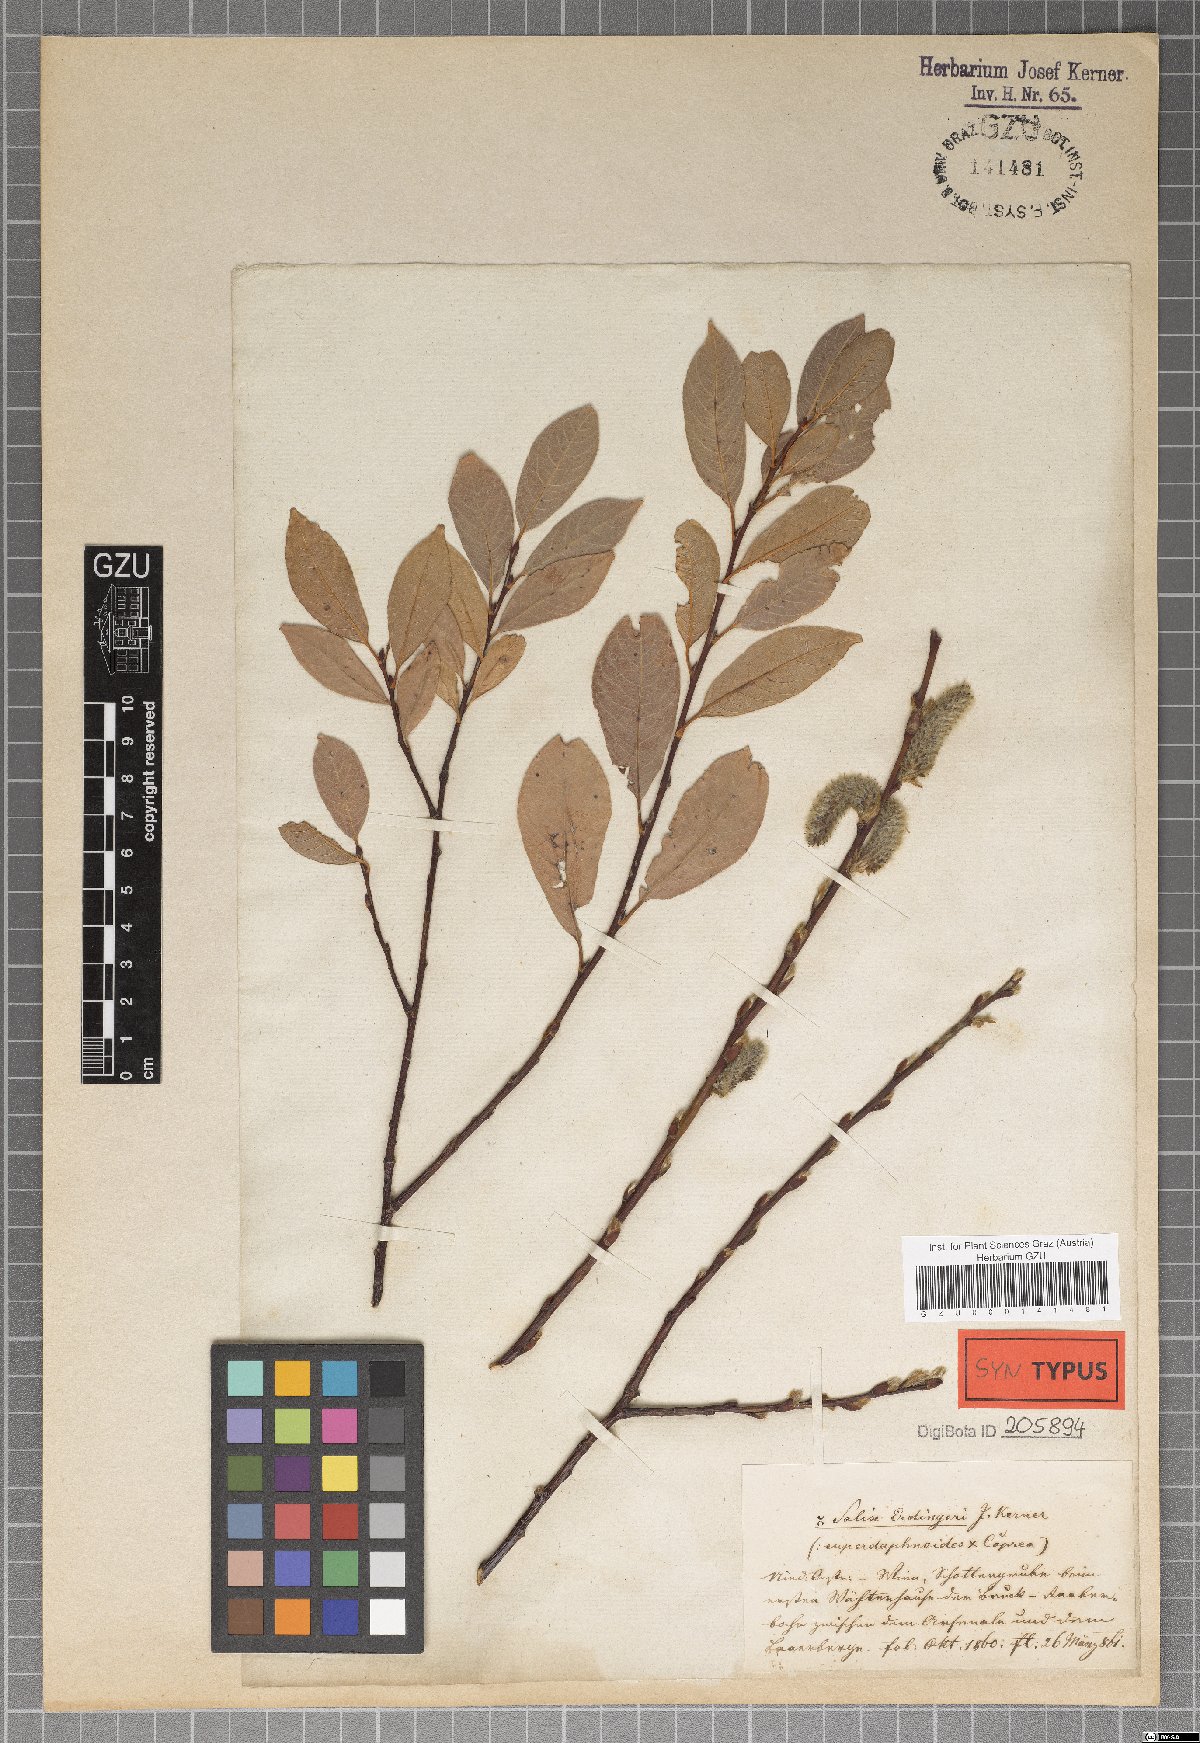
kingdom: Plantae
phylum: Tracheophyta
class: Magnoliopsida
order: Malpighiales
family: Salicaceae
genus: Salix
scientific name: Salix erdingeri
